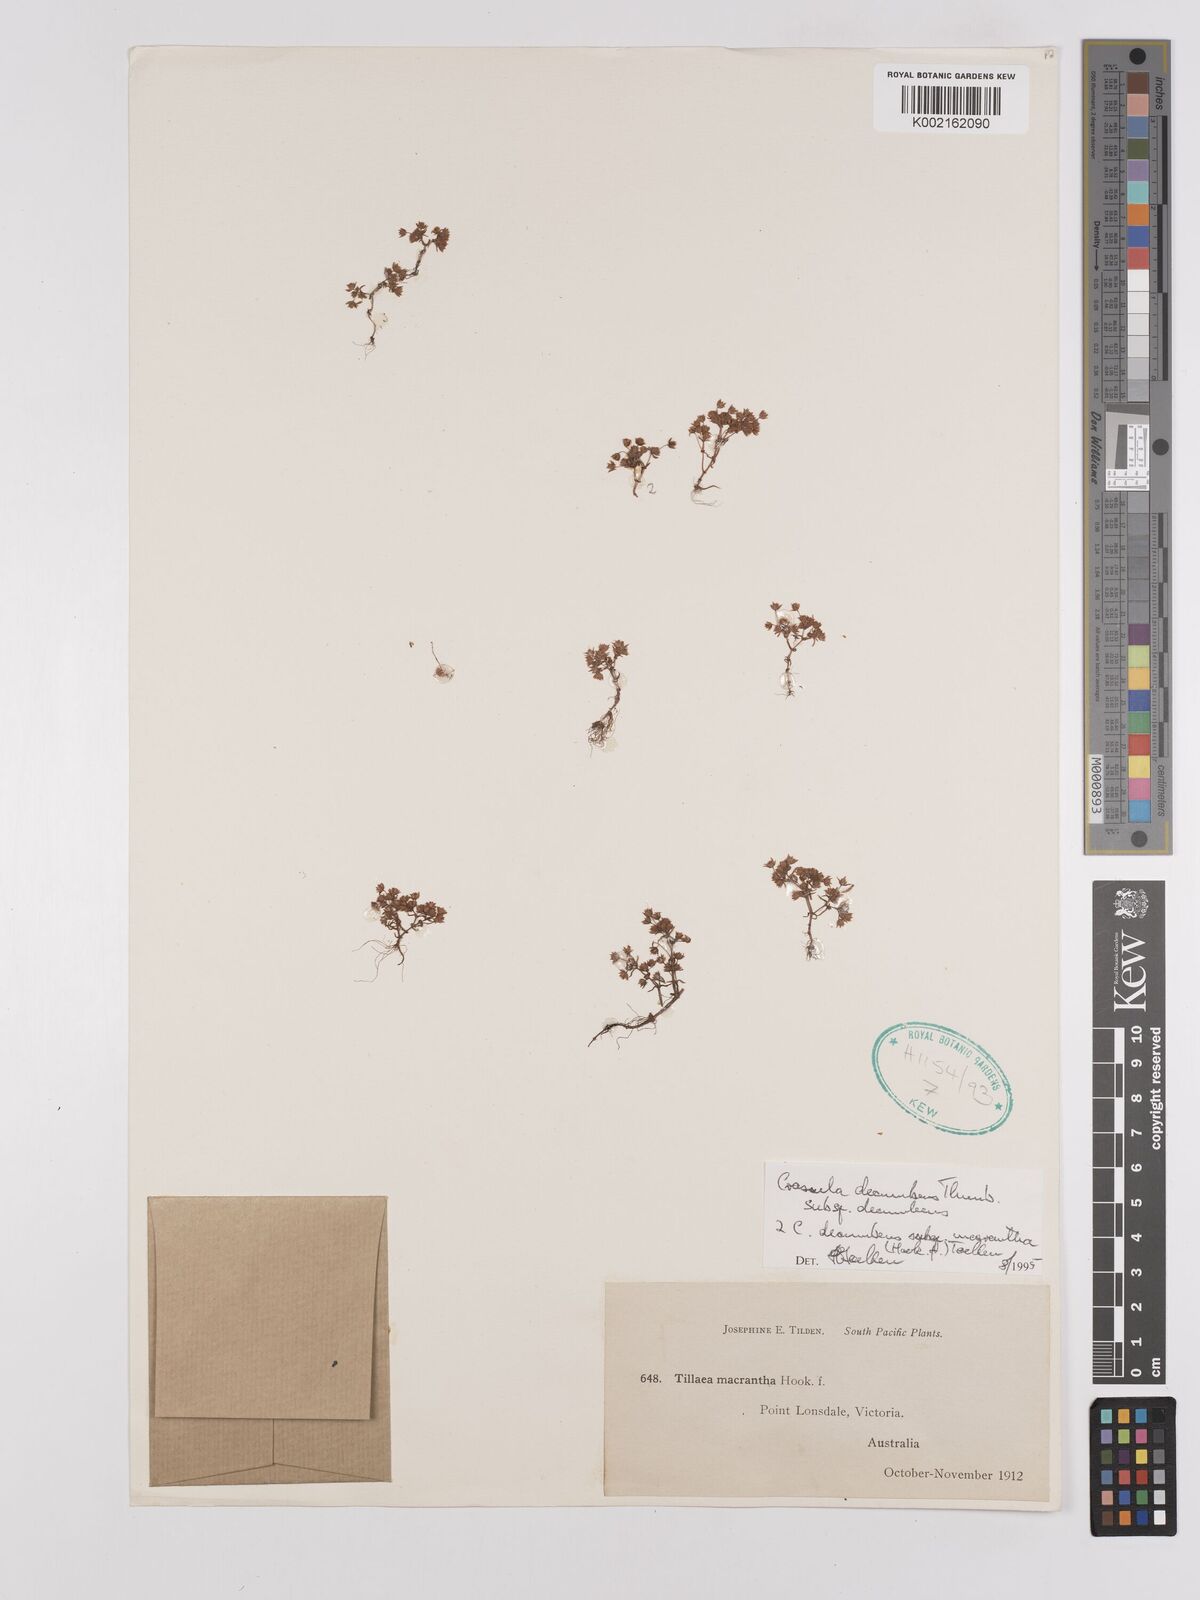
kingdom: Plantae
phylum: Tracheophyta
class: Magnoliopsida
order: Saxifragales
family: Crassulaceae
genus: Crassula
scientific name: Crassula decumbens
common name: Scilly pigmyweed
